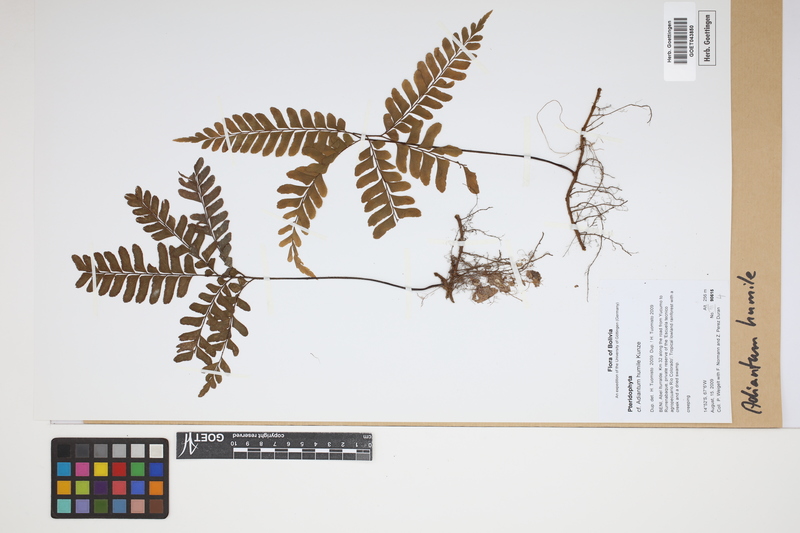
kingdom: Plantae
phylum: Tracheophyta
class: Polypodiopsida
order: Polypodiales
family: Pteridaceae
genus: Adiantum
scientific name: Adiantum humile
